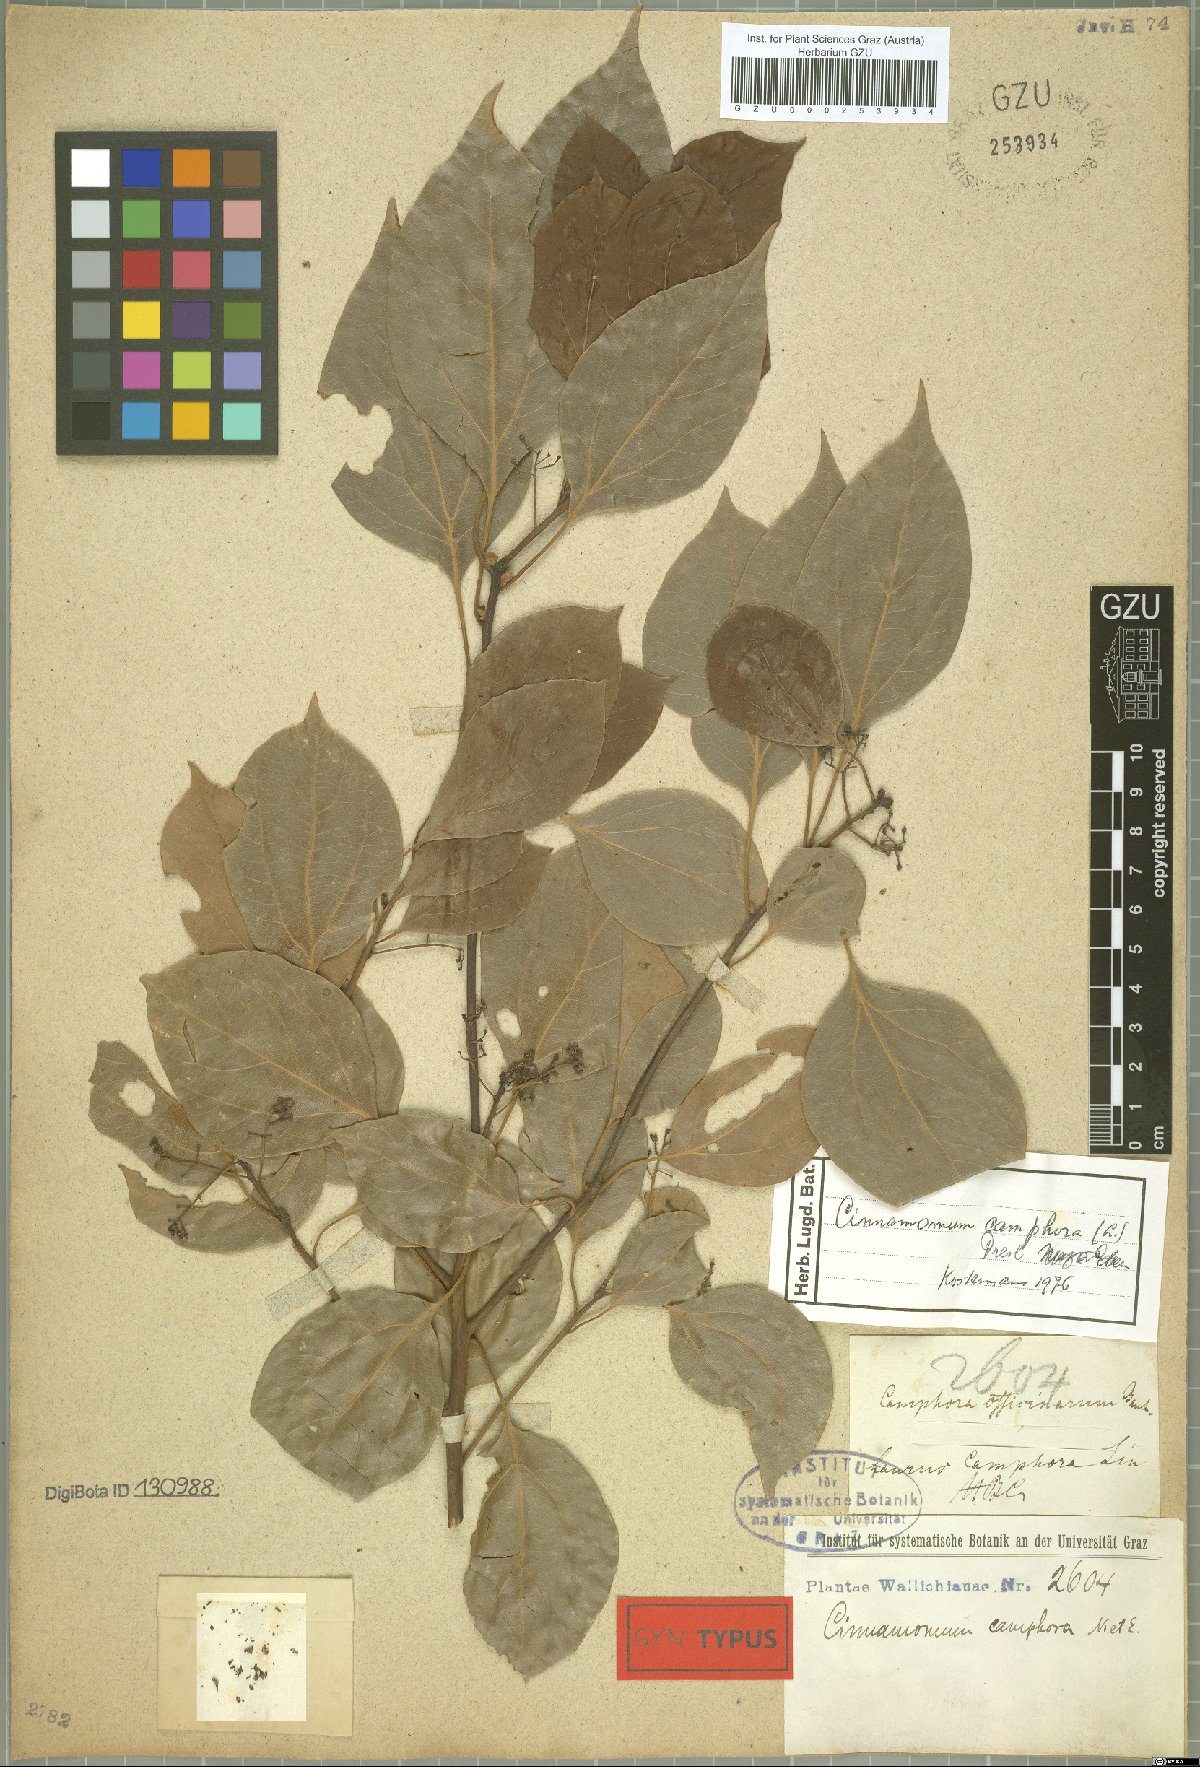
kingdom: Plantae
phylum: Tracheophyta
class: Magnoliopsida
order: Laurales
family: Lauraceae
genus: Cinnamomum
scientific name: Cinnamomum camphora
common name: Camphortree
